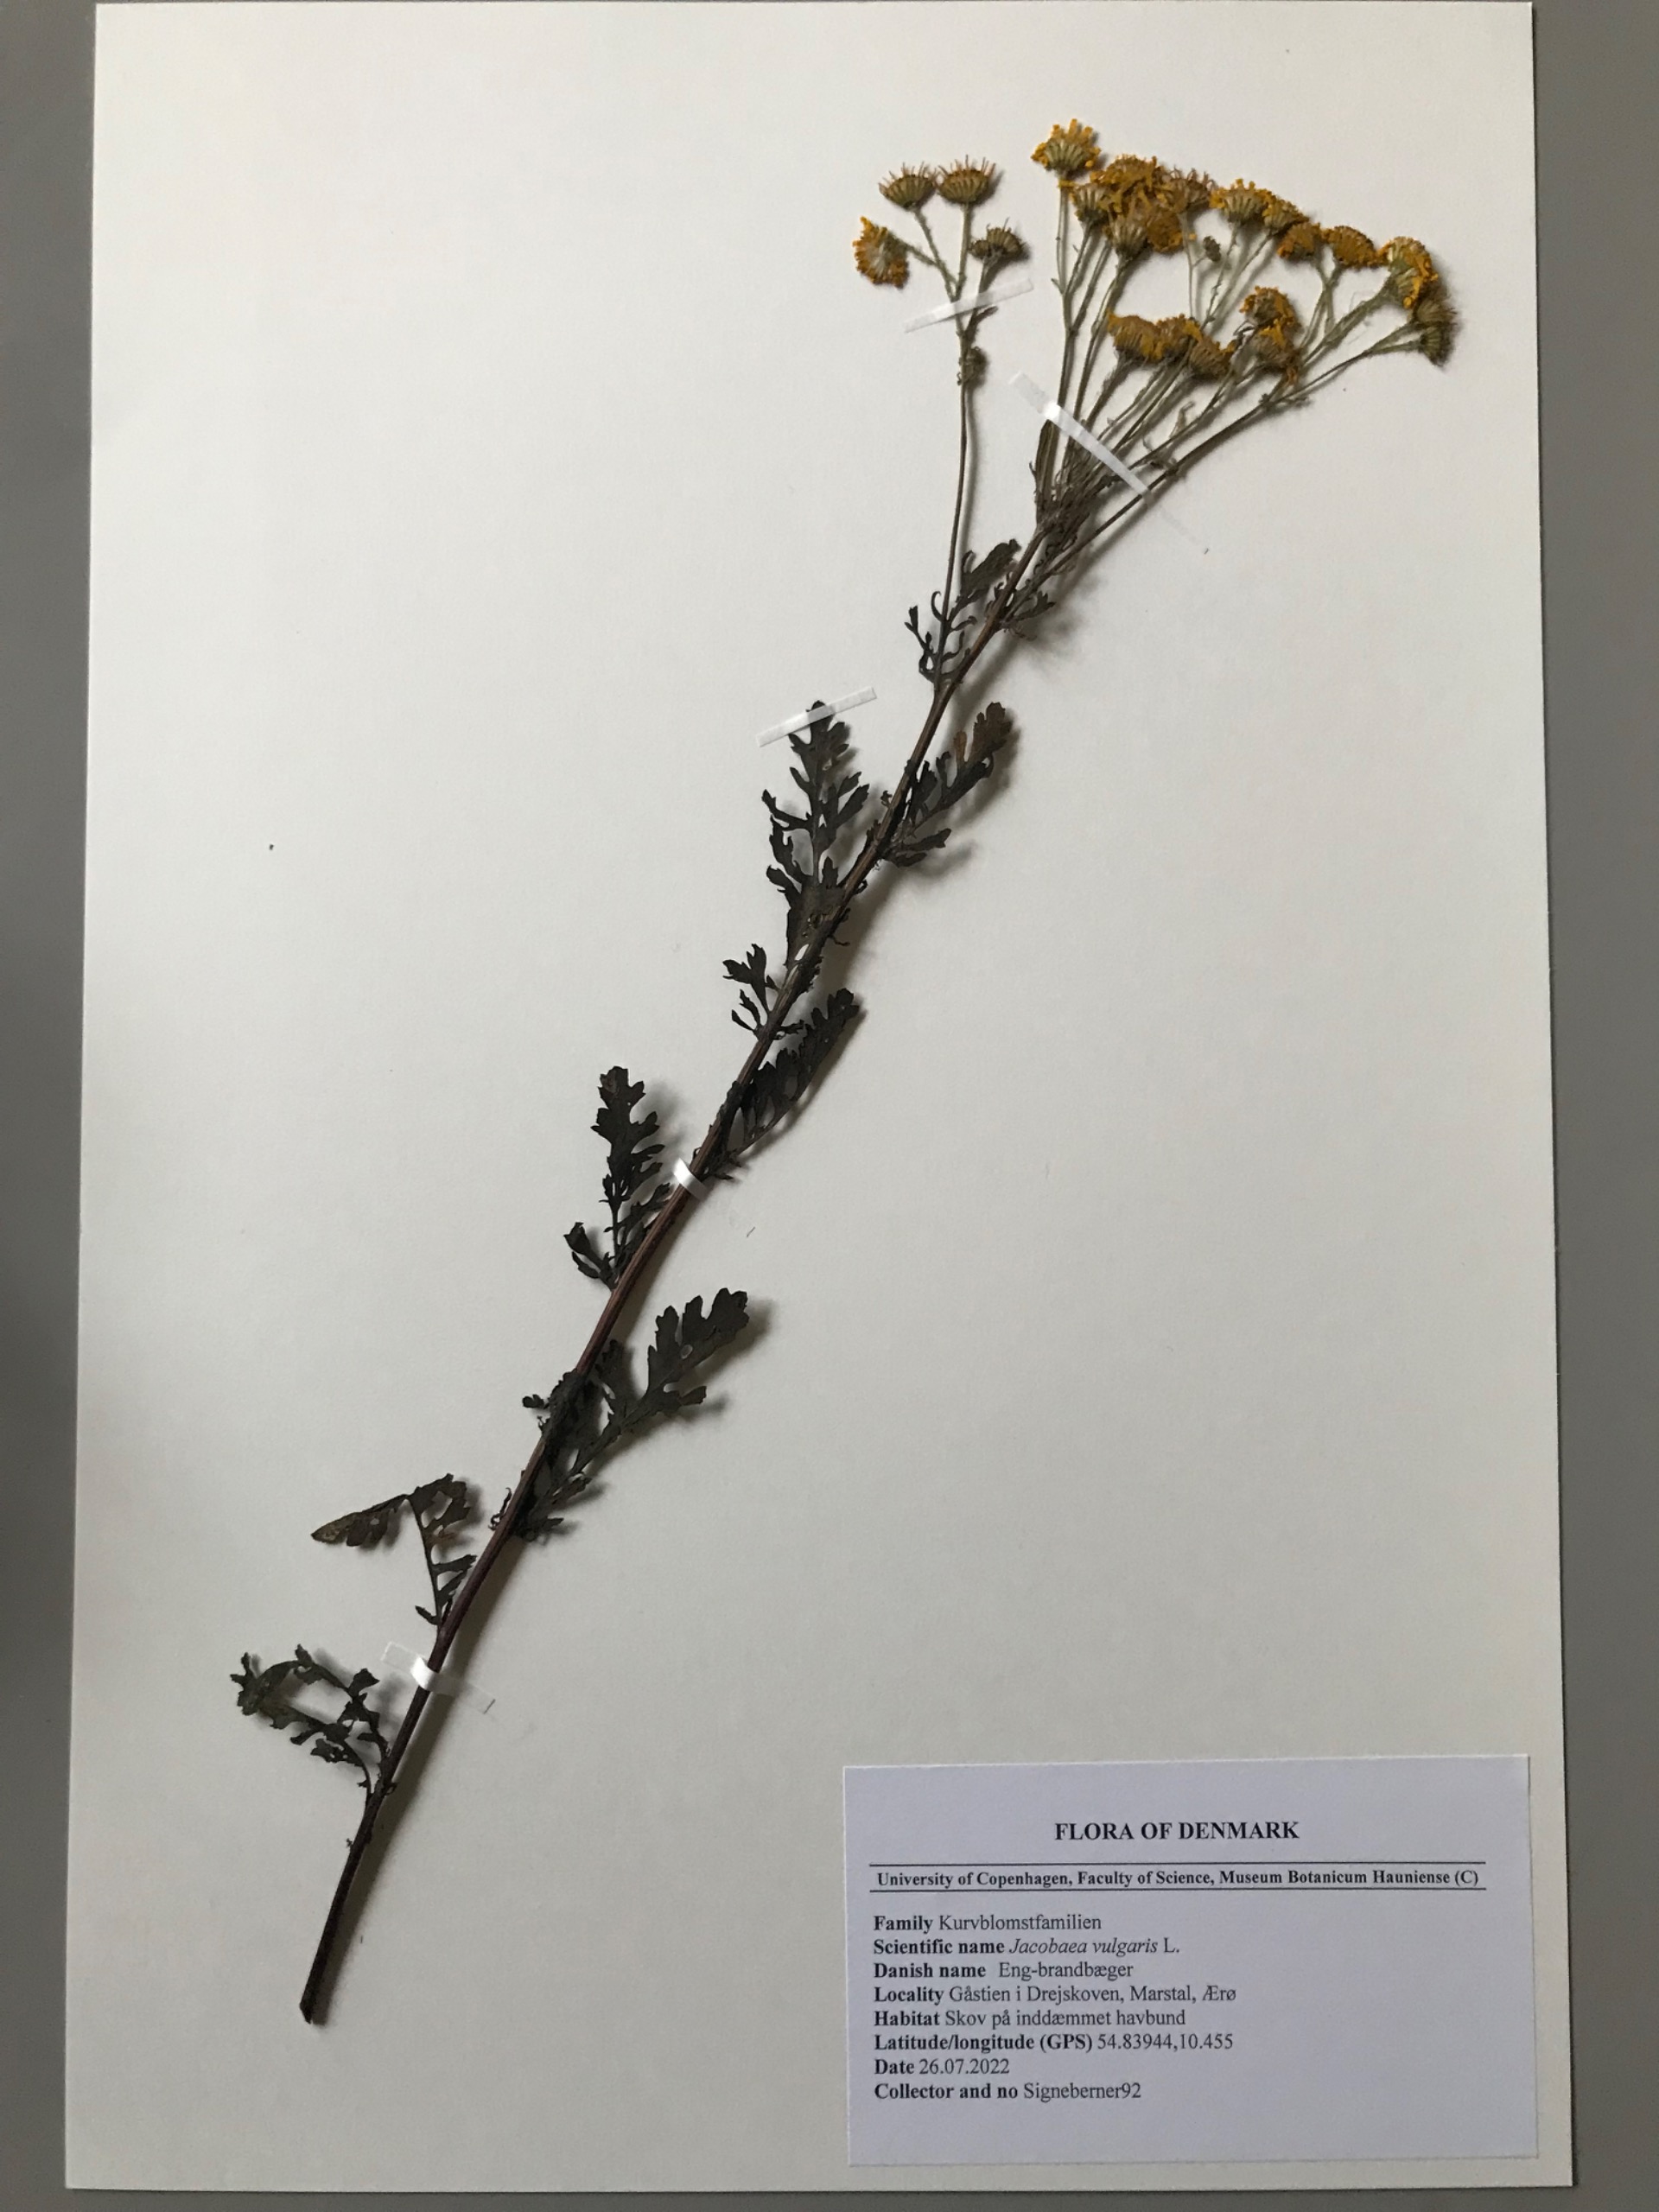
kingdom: Plantae
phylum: Tracheophyta
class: Magnoliopsida
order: Asterales
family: Asteraceae
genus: Jacobaea
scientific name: Jacobaea vulgaris
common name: Eng-brandbæger
